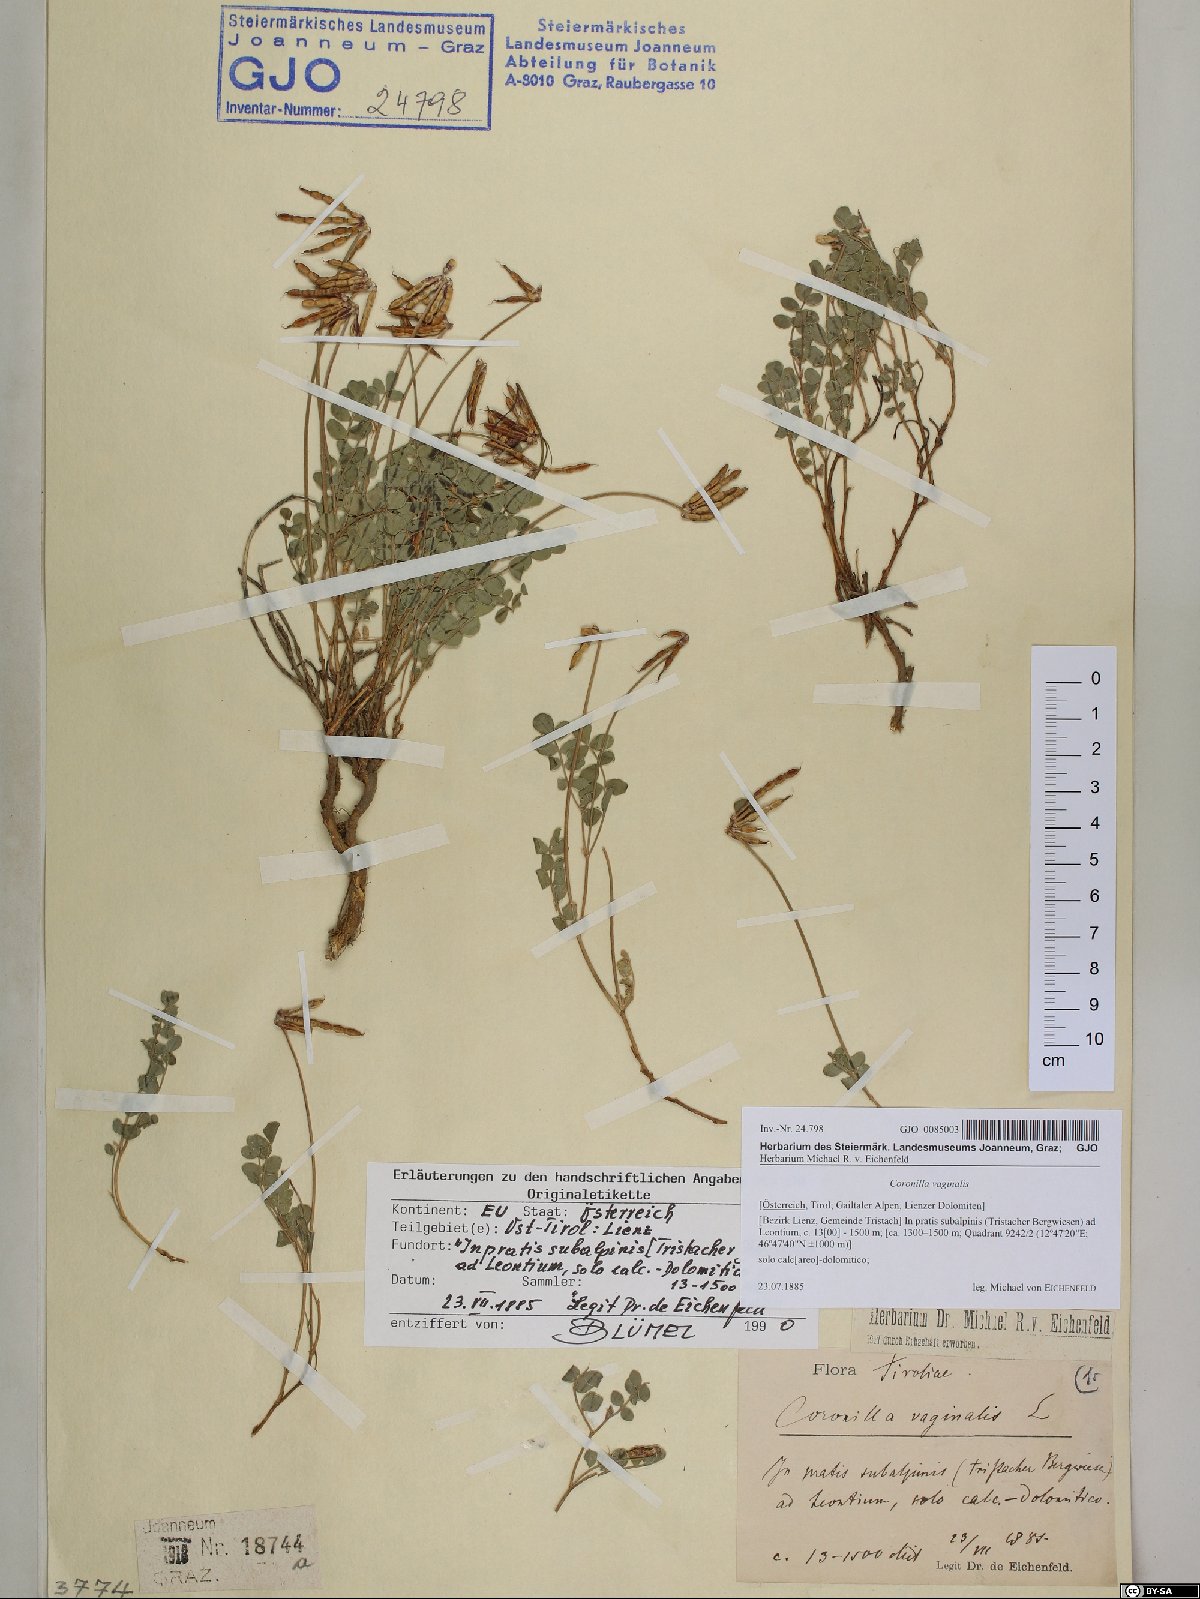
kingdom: Plantae
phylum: Tracheophyta
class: Magnoliopsida
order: Fabales
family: Fabaceae
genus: Coronilla
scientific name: Coronilla vaginalis
